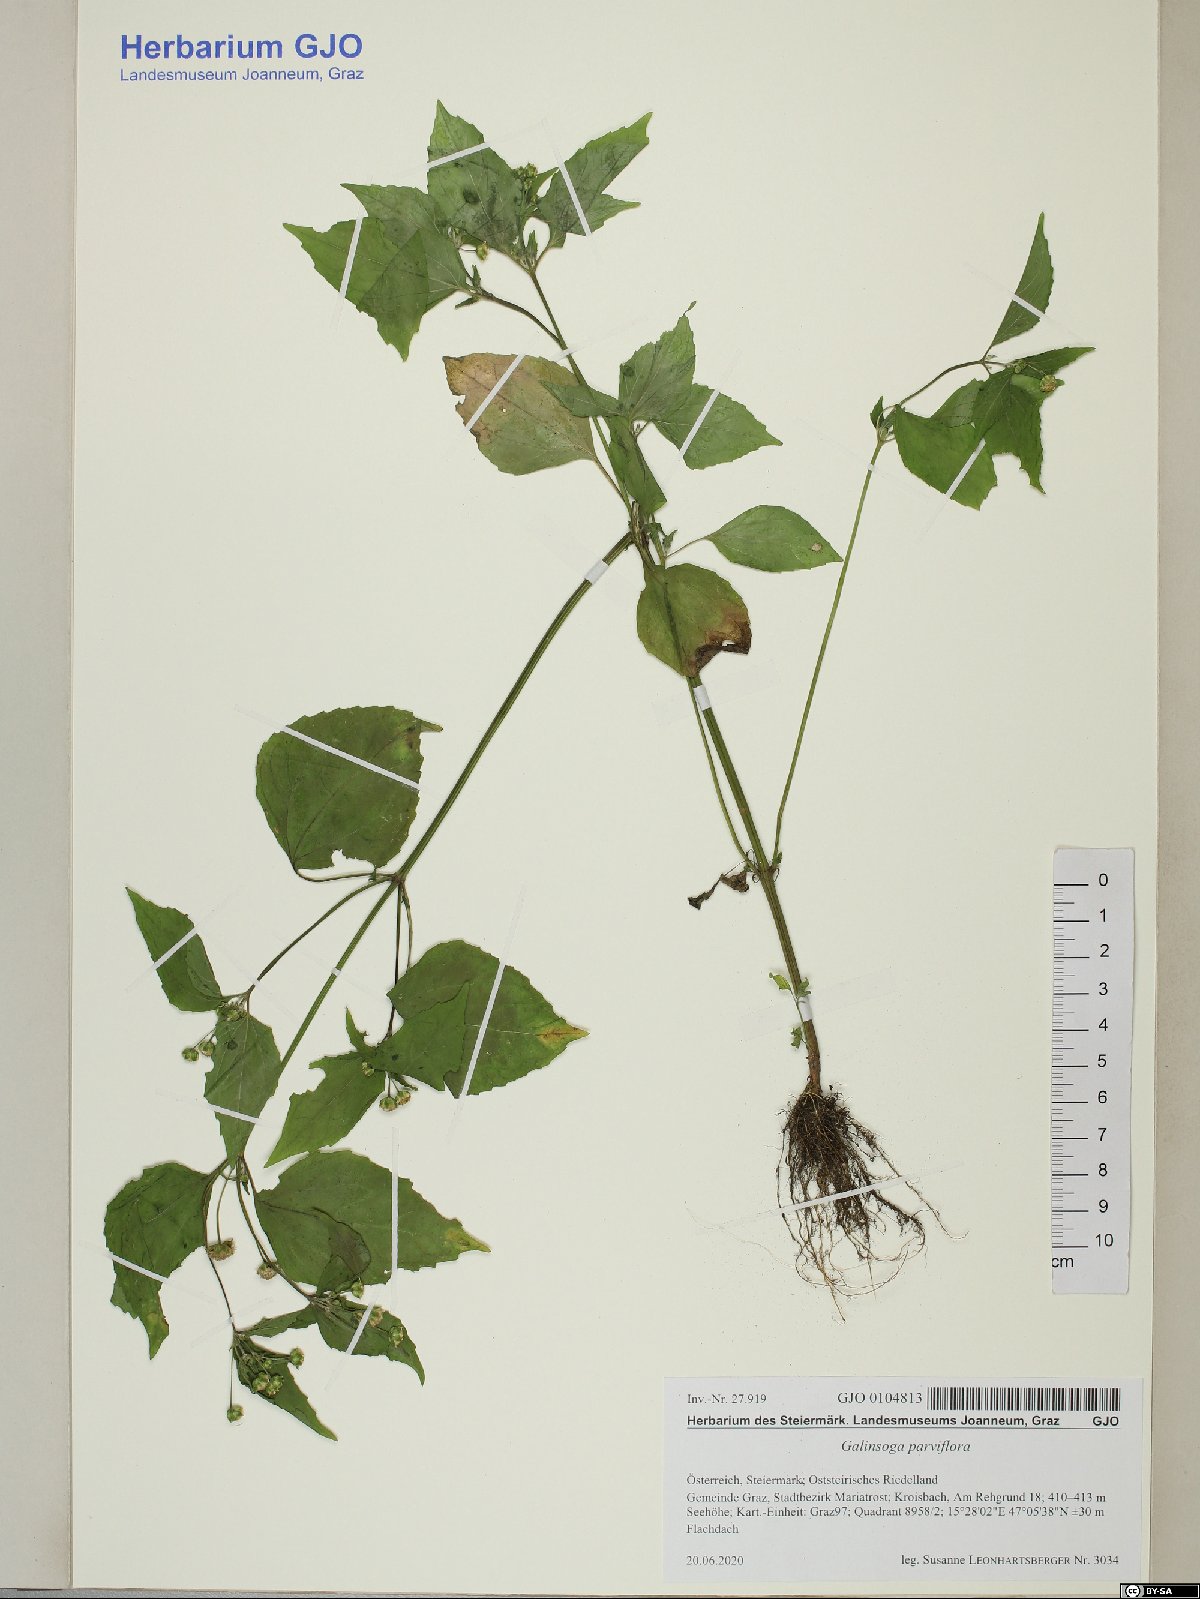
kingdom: Plantae
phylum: Tracheophyta
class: Magnoliopsida
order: Asterales
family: Asteraceae
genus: Galinsoga
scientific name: Galinsoga parviflora
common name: Gallant soldier
